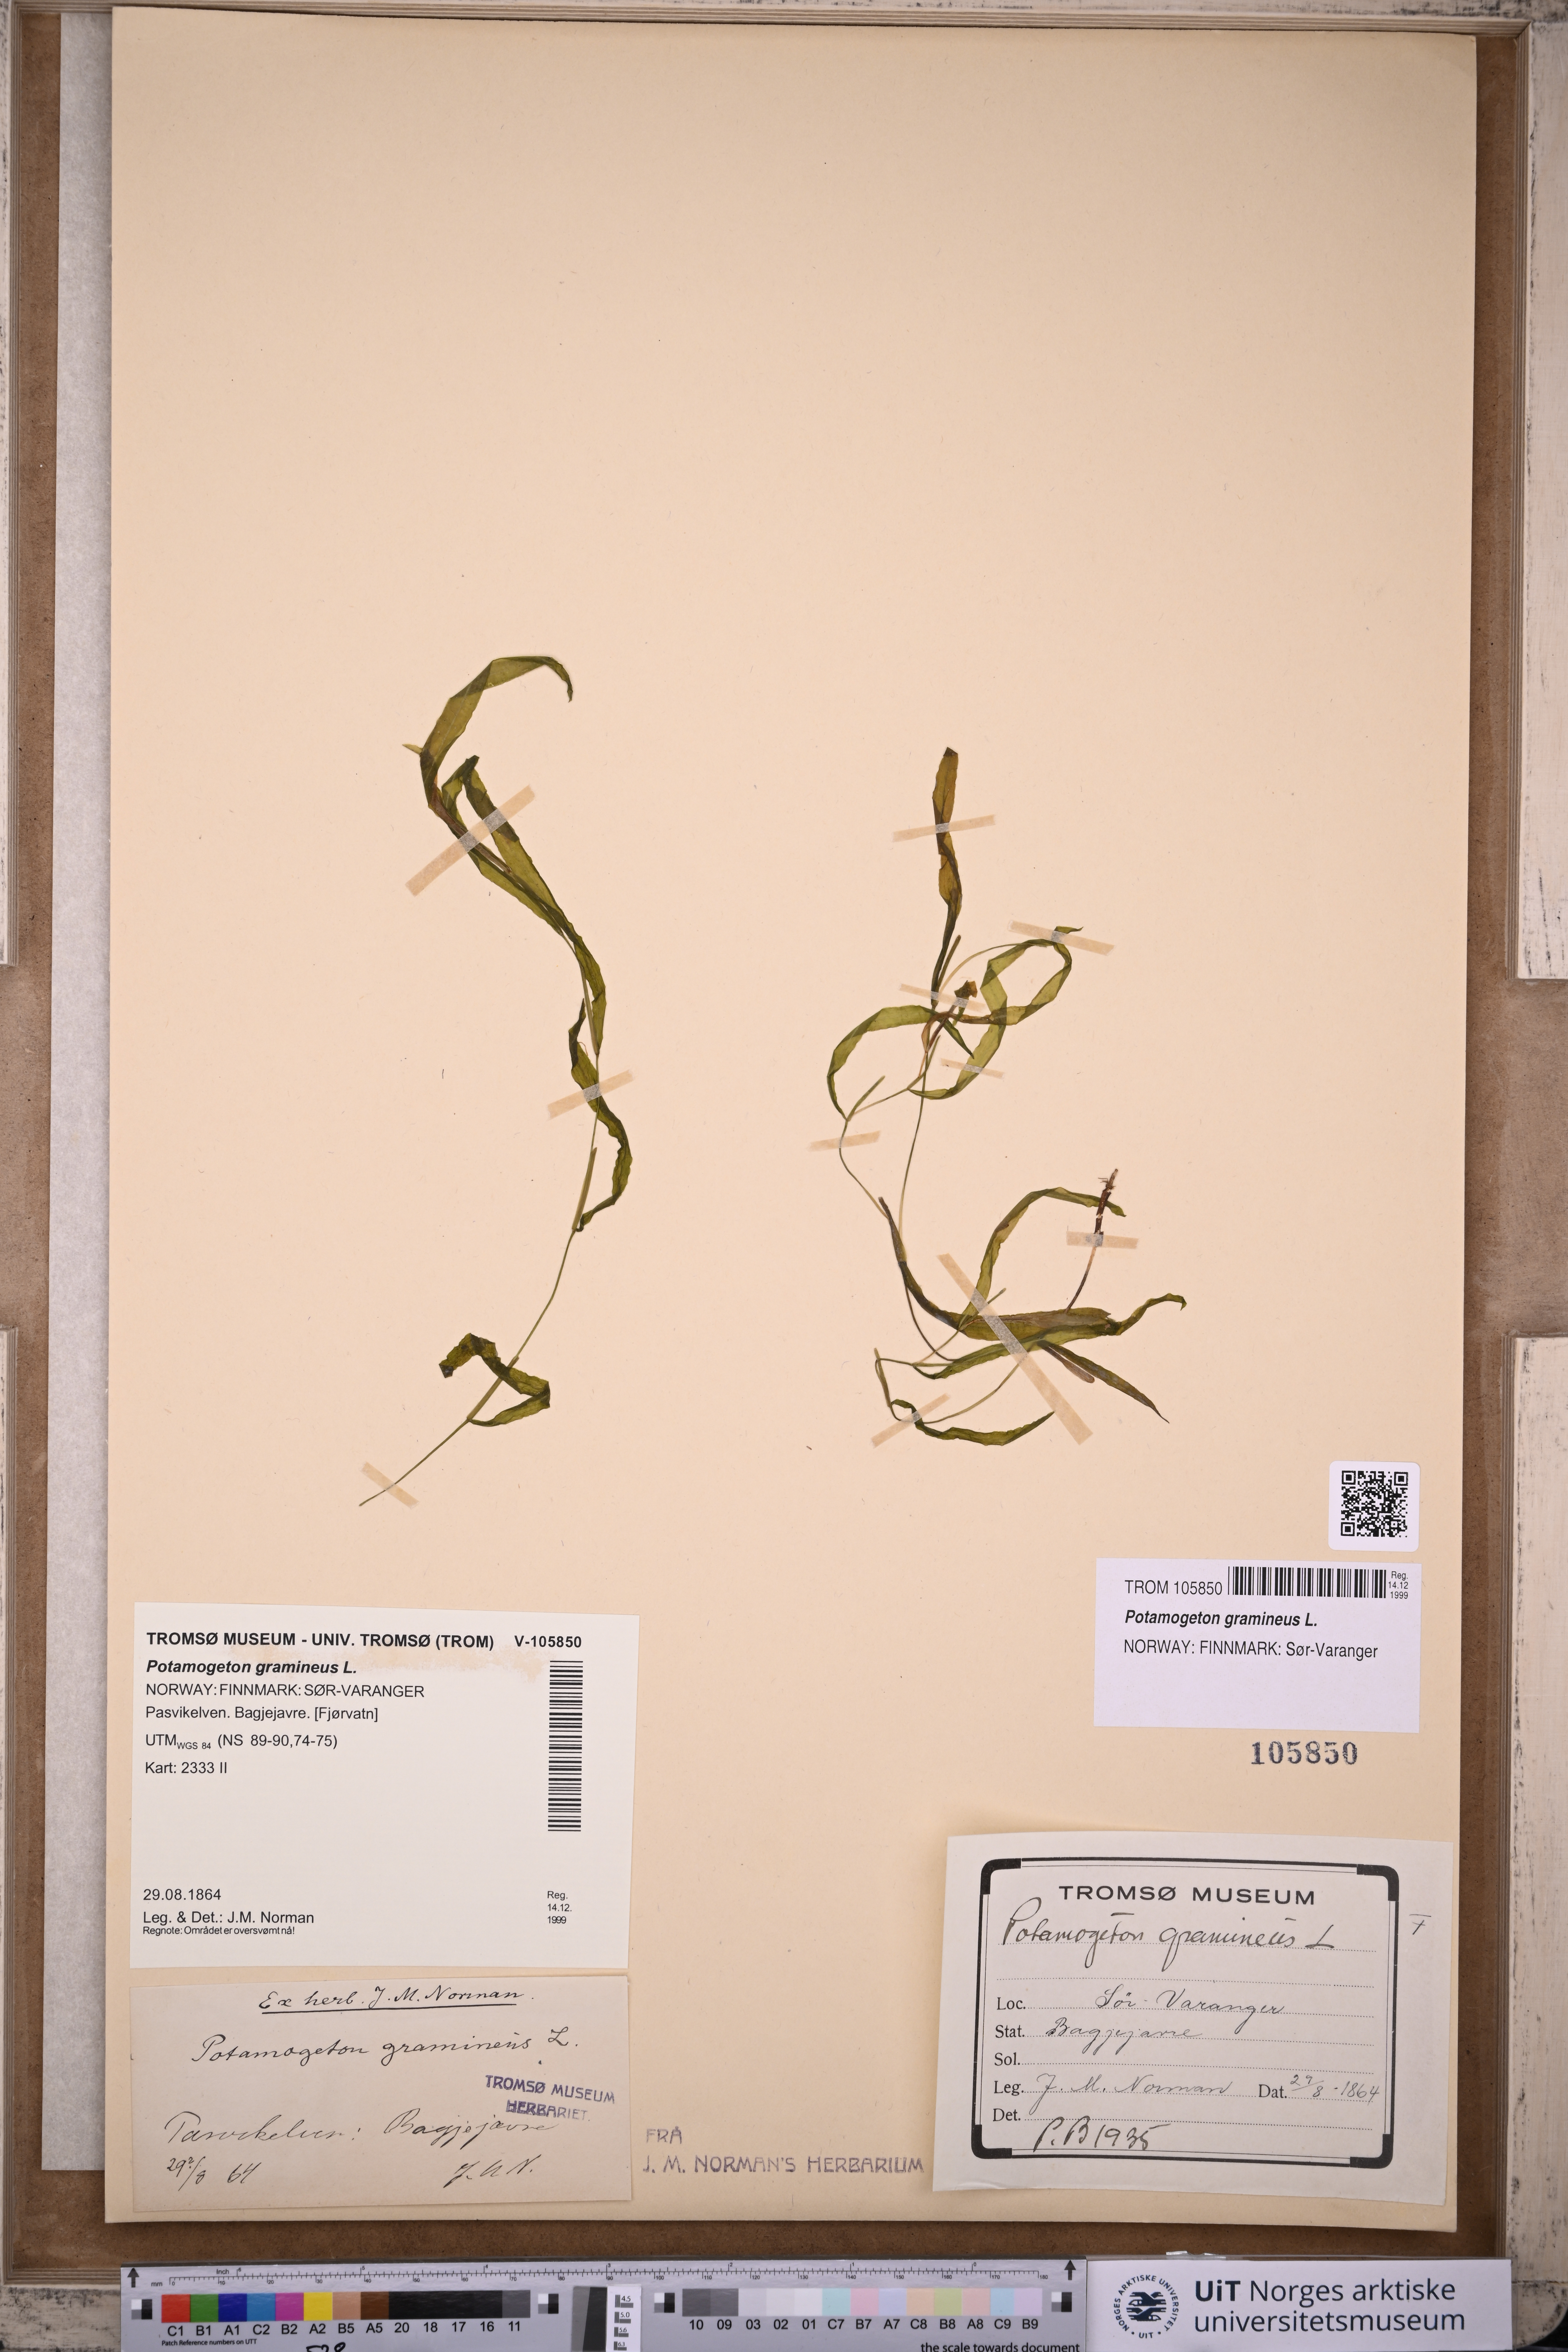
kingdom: Plantae
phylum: Tracheophyta
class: Liliopsida
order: Alismatales
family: Potamogetonaceae
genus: Potamogeton
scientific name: Potamogeton gramineus
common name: Various-leaved pondweed
